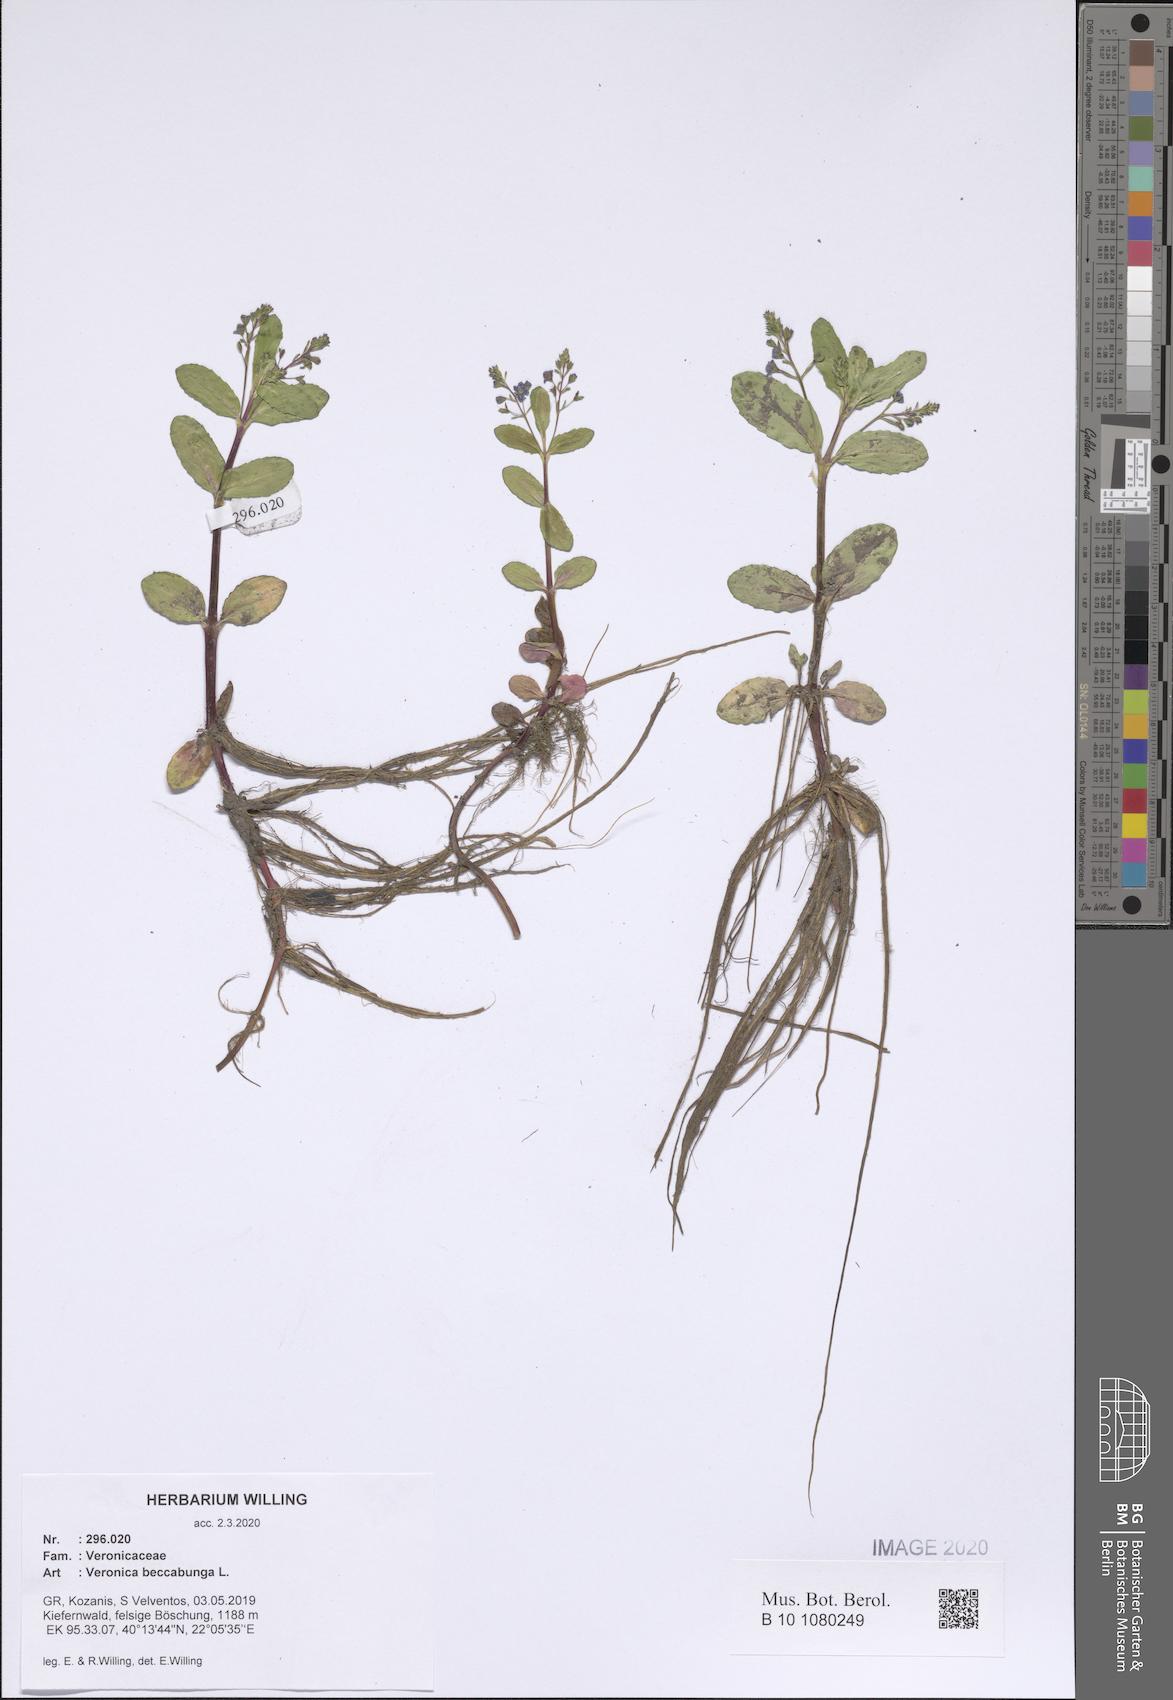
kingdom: Plantae
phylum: Tracheophyta
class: Magnoliopsida
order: Lamiales
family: Plantaginaceae
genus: Veronica
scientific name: Veronica beccabunga
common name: Brooklime
